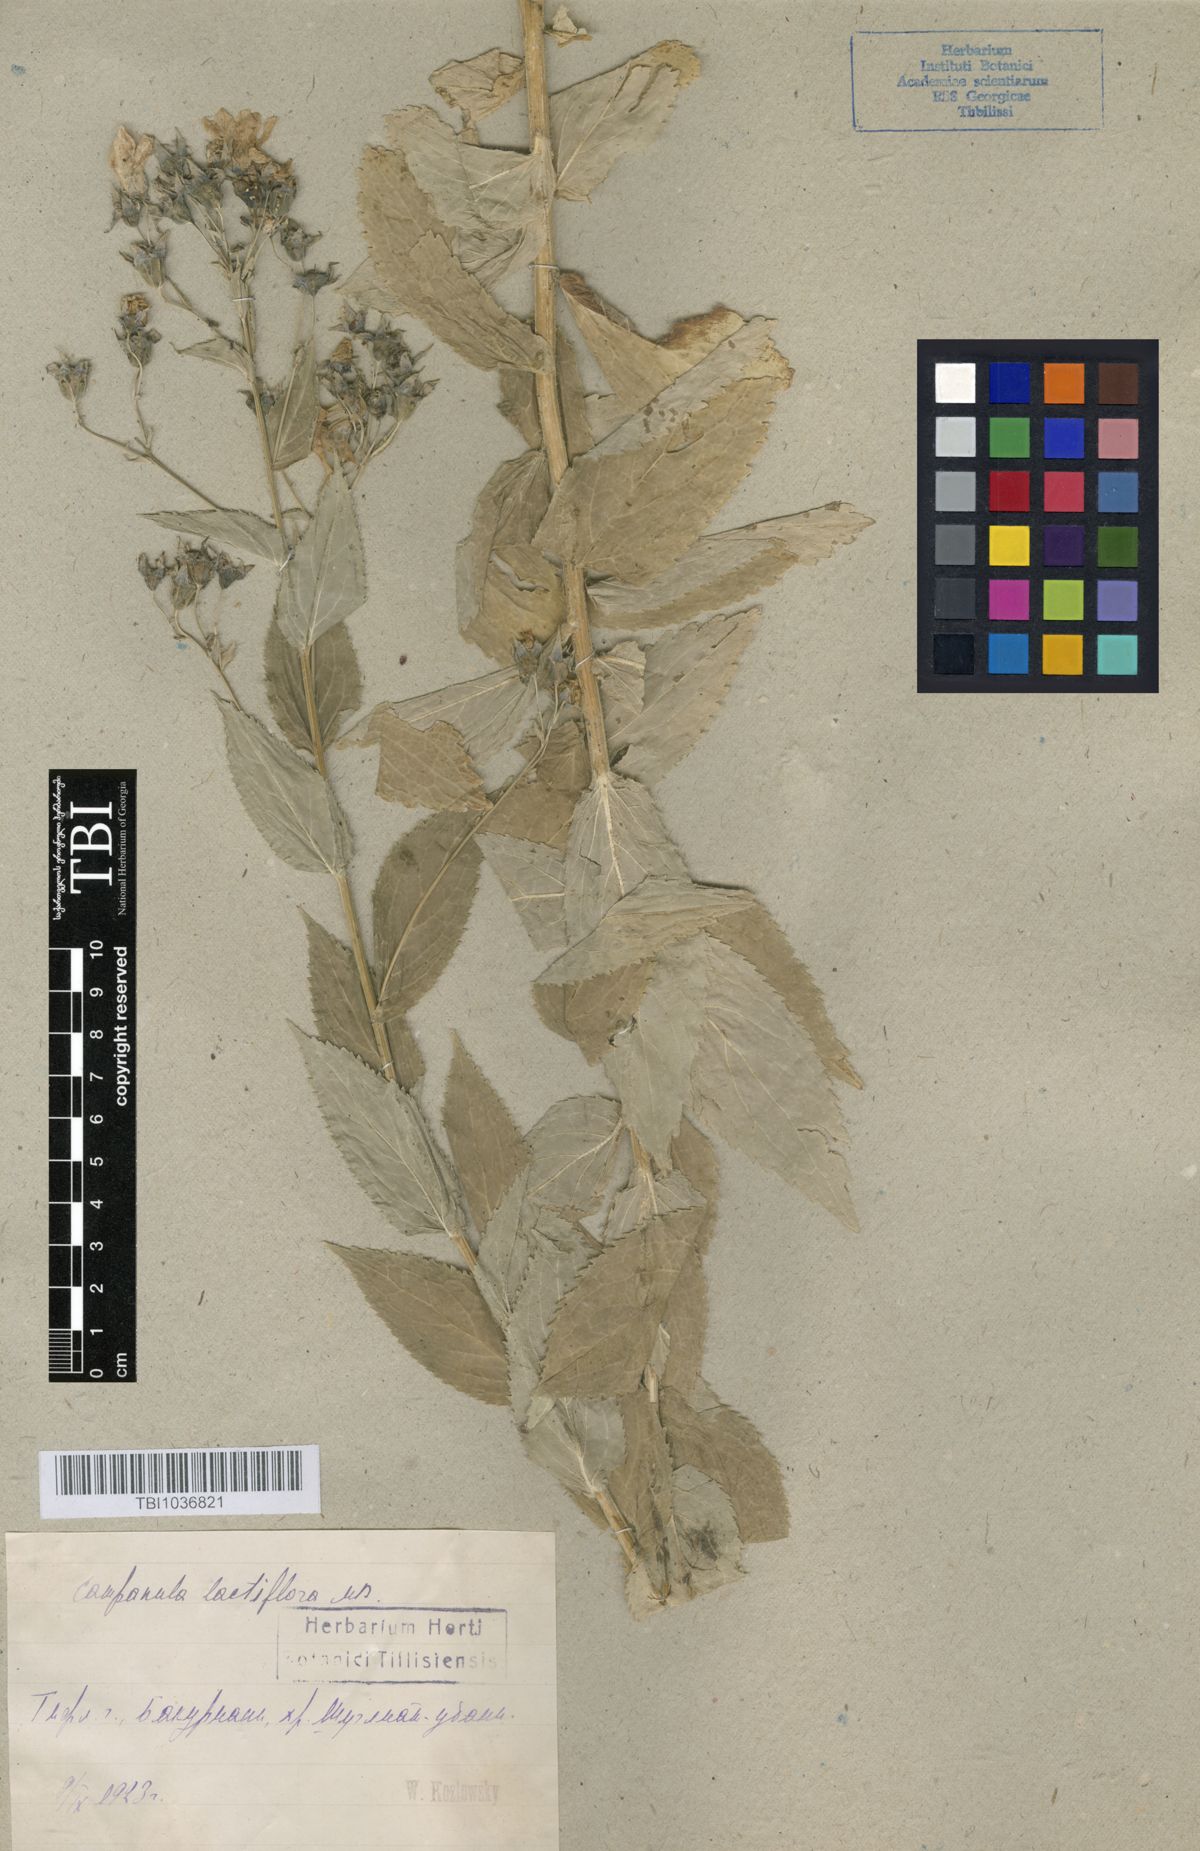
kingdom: Plantae
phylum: Tracheophyta
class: Magnoliopsida
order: Asterales
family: Campanulaceae
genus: Campanula
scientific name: Campanula lactiflora
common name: Milky bellflower
